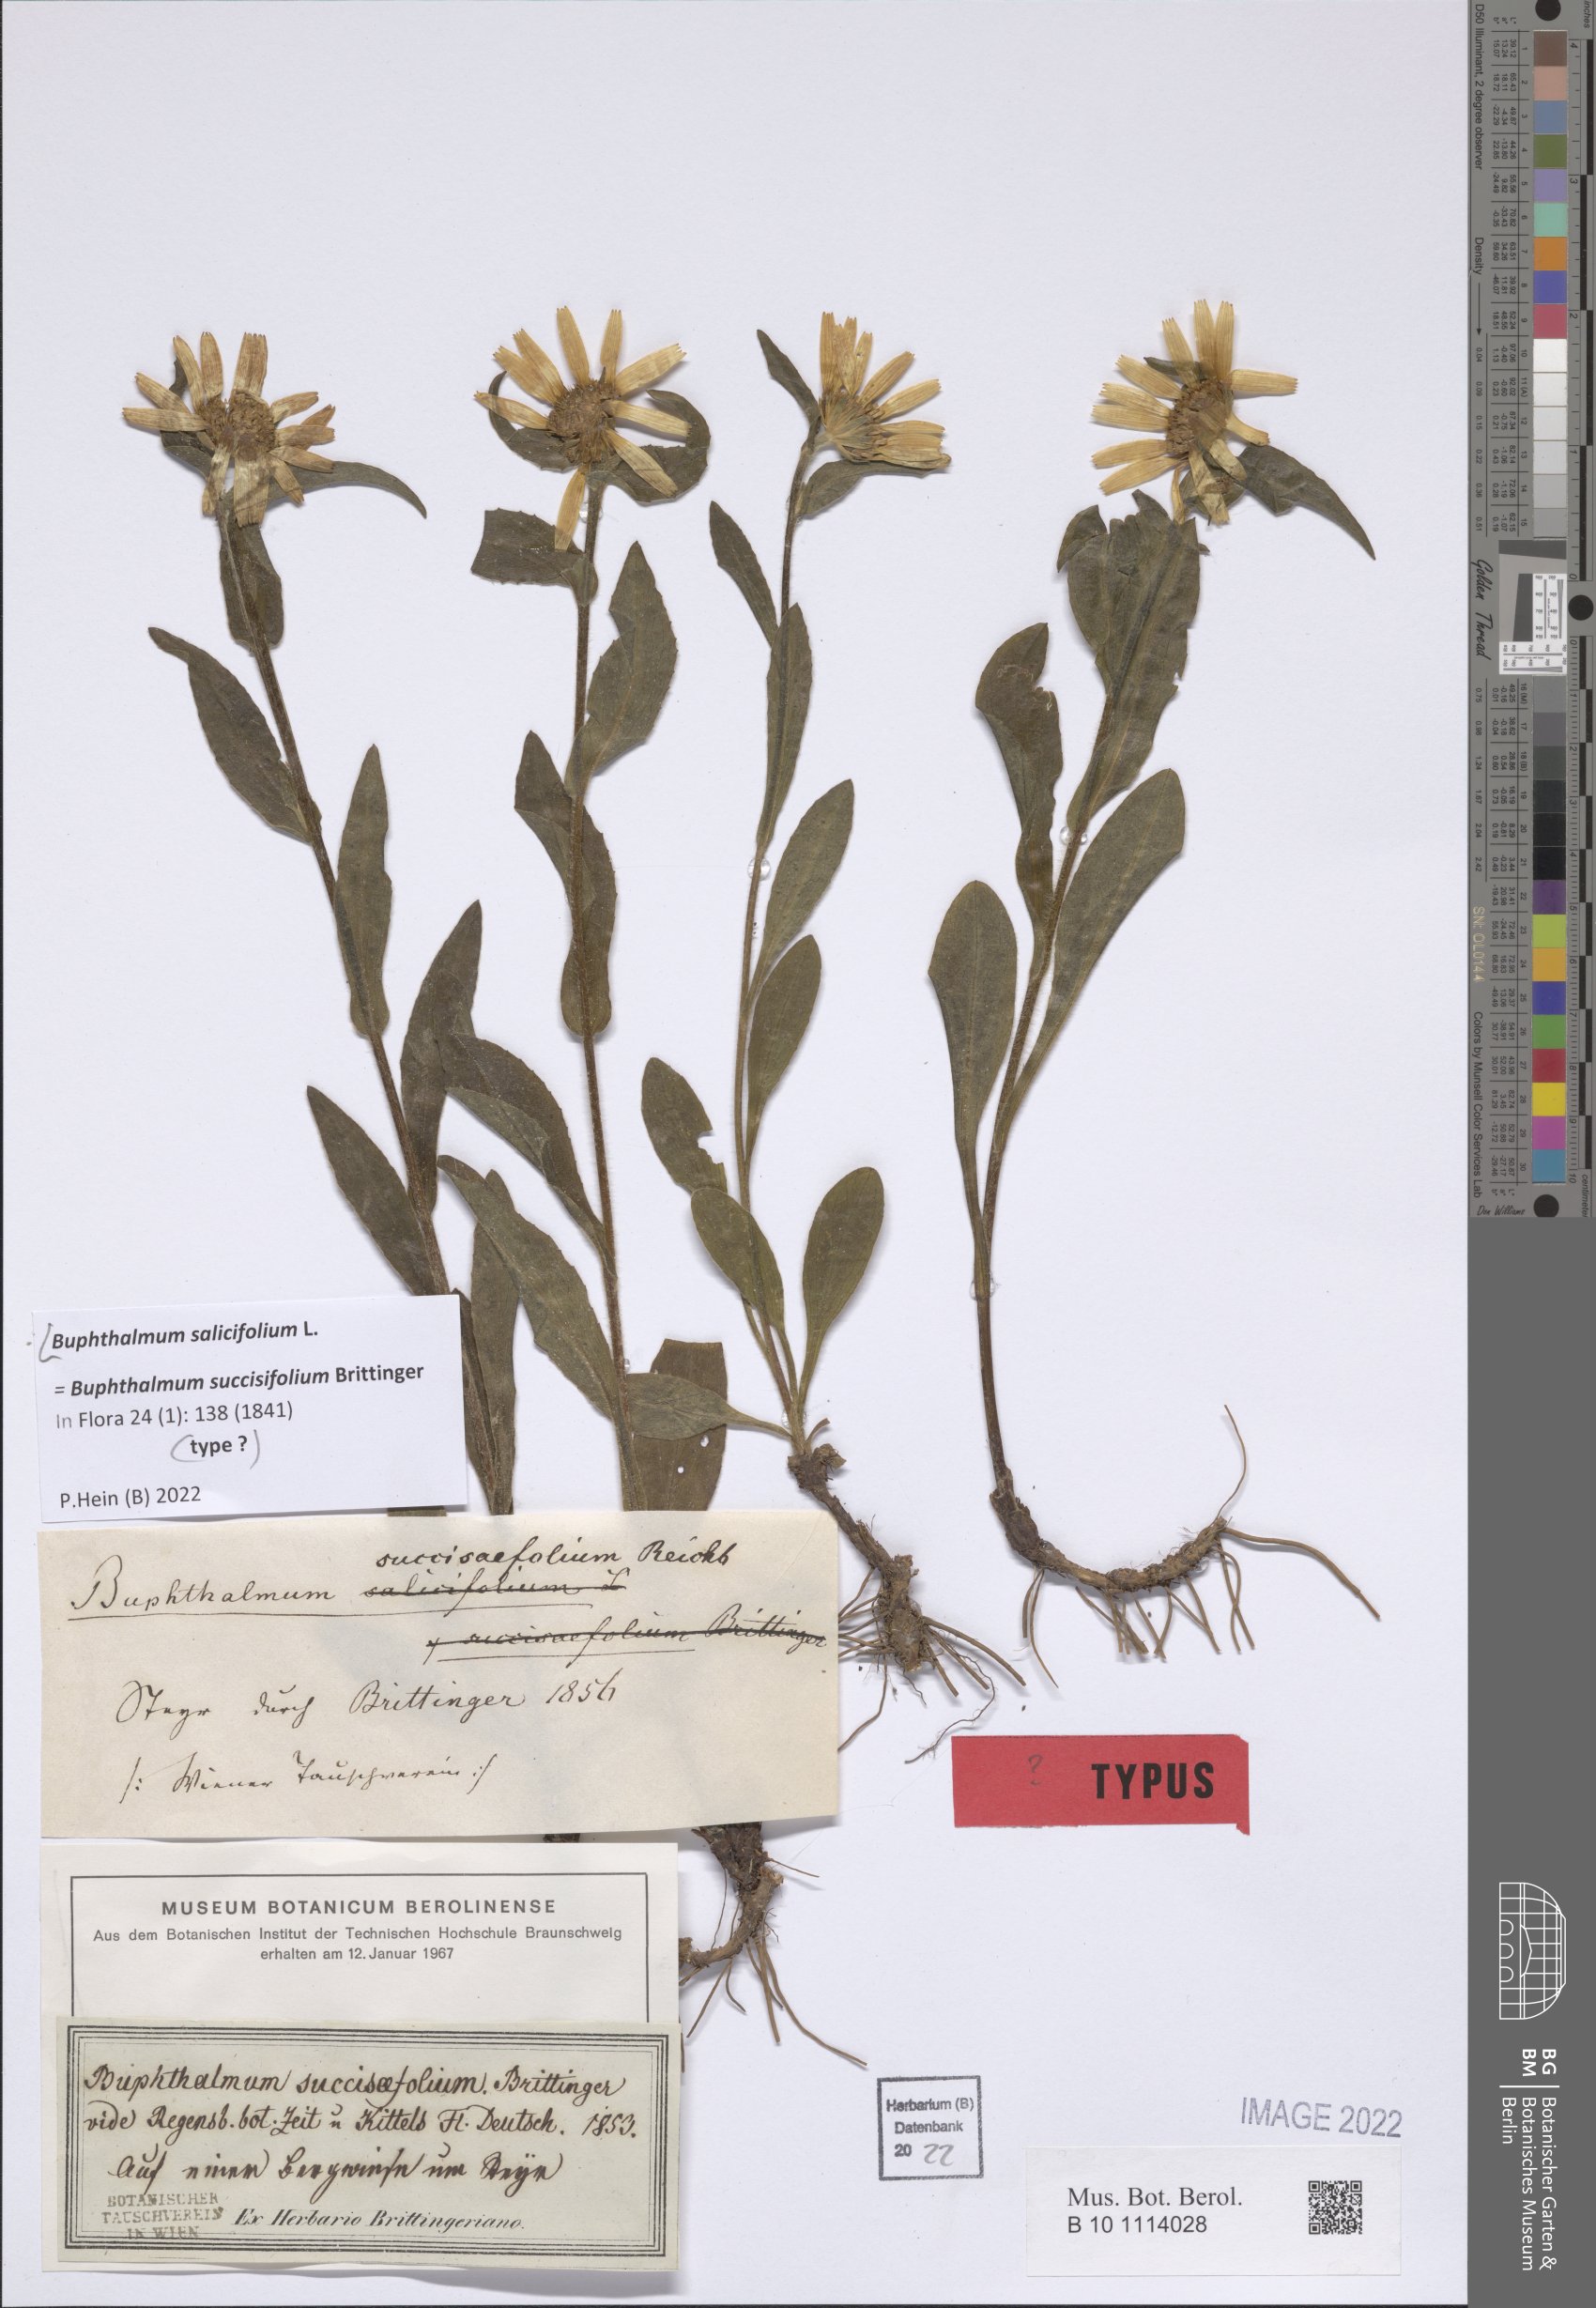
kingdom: Plantae
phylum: Tracheophyta
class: Magnoliopsida
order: Asterales
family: Asteraceae
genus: Buphthalmum
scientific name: Buphthalmum salicifolium
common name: Willow-leaved yellow-oxeye
